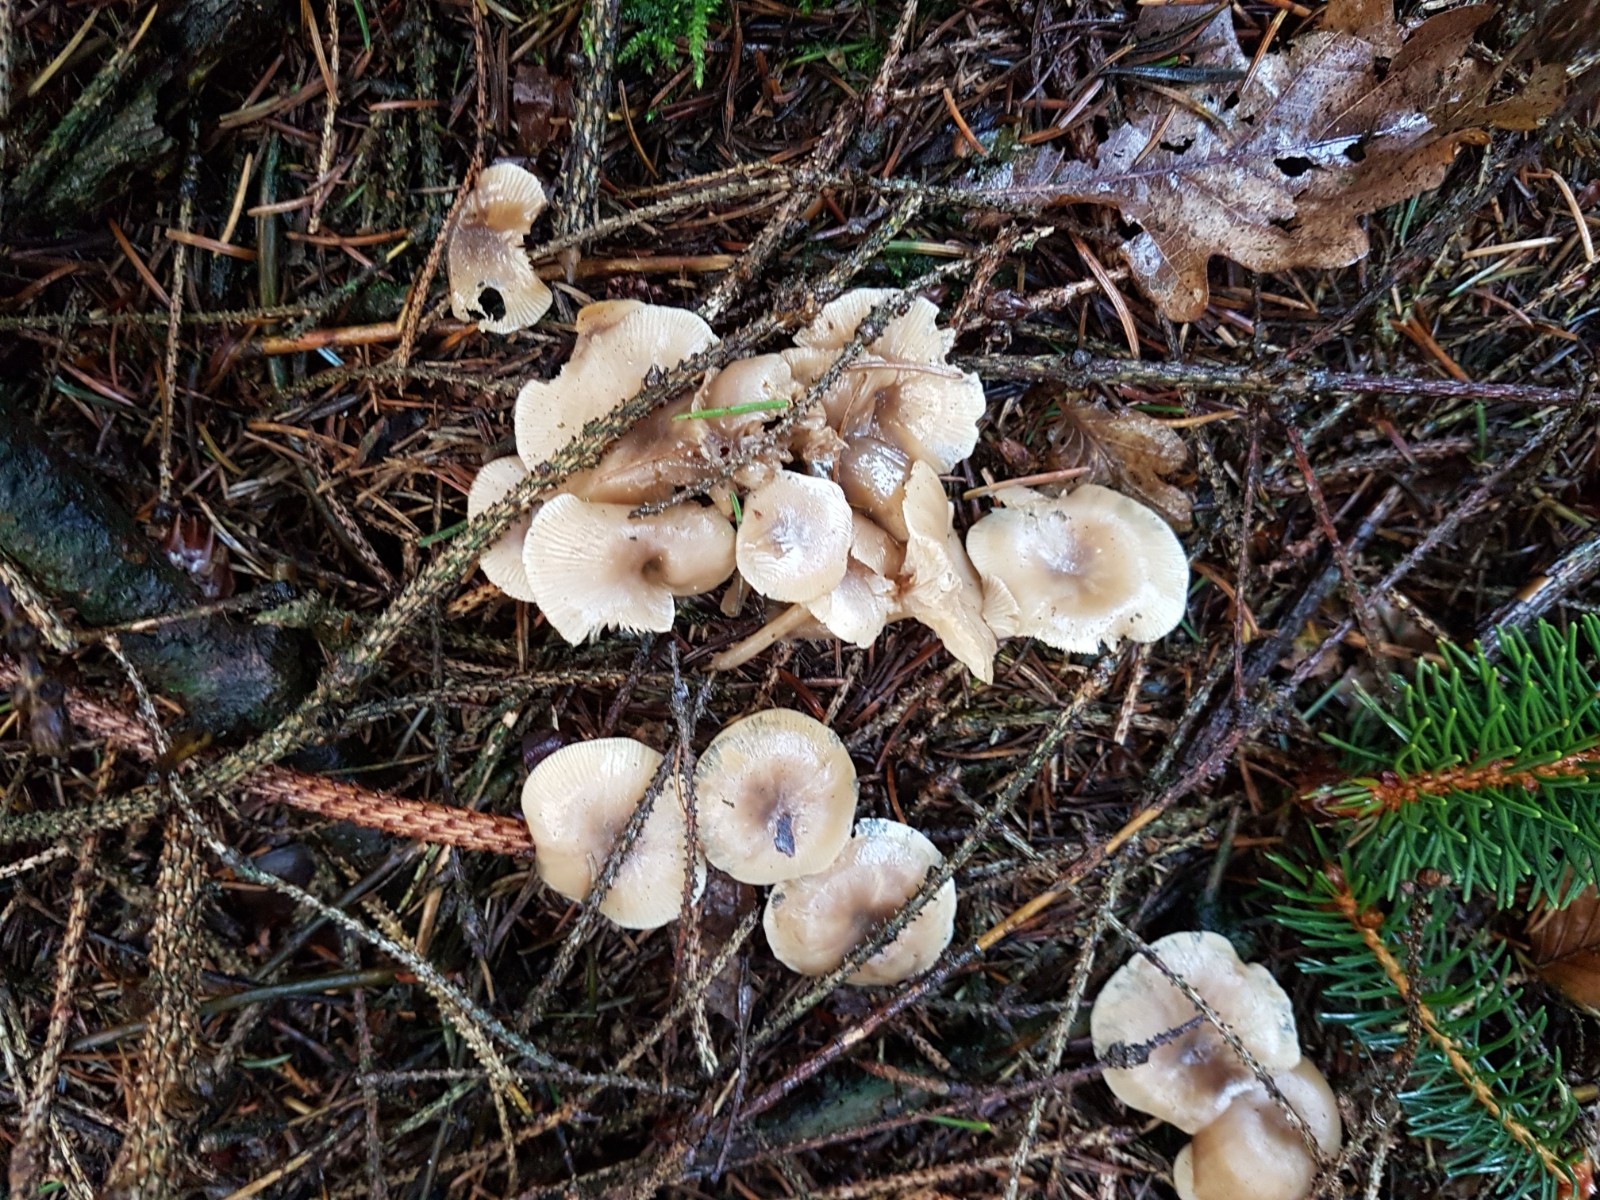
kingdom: Fungi
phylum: Basidiomycota
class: Agaricomycetes
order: Agaricales
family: Tricholomataceae
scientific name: Tricholomataceae
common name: ridderhatfamilien
